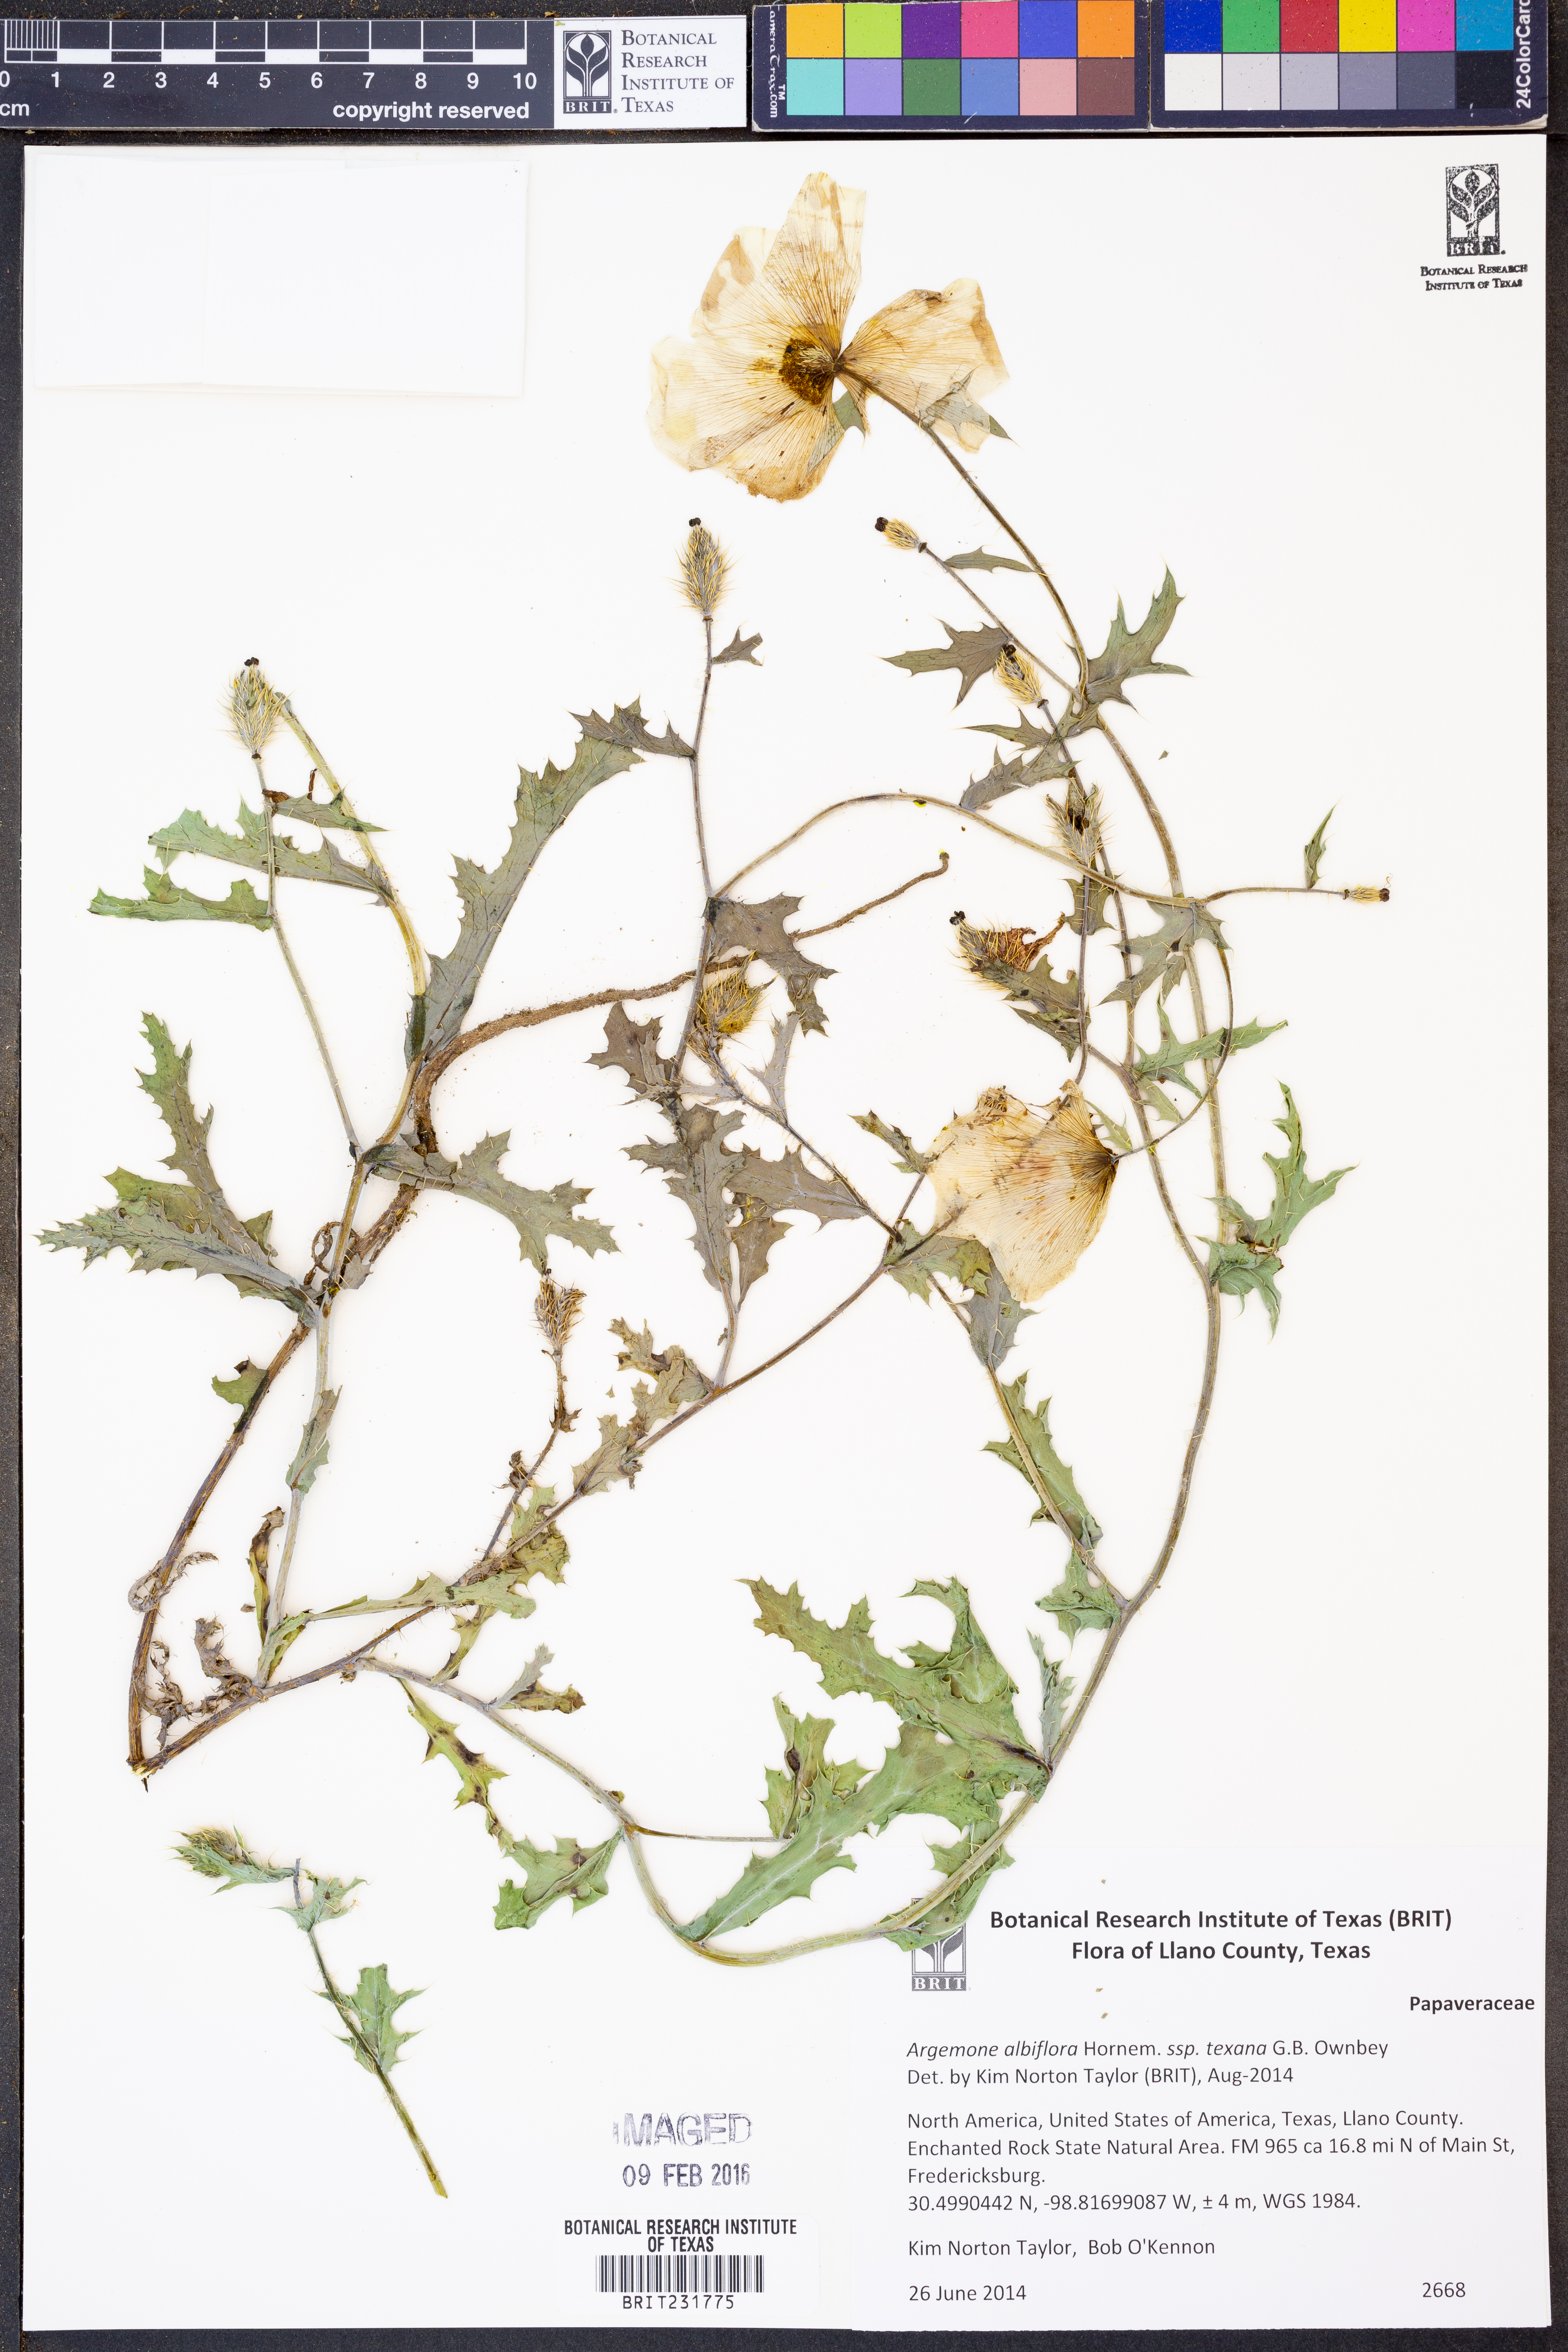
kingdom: Plantae
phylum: Tracheophyta
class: Magnoliopsida
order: Ranunculales
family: Papaveraceae
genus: Argemone
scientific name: Argemone albiflora
